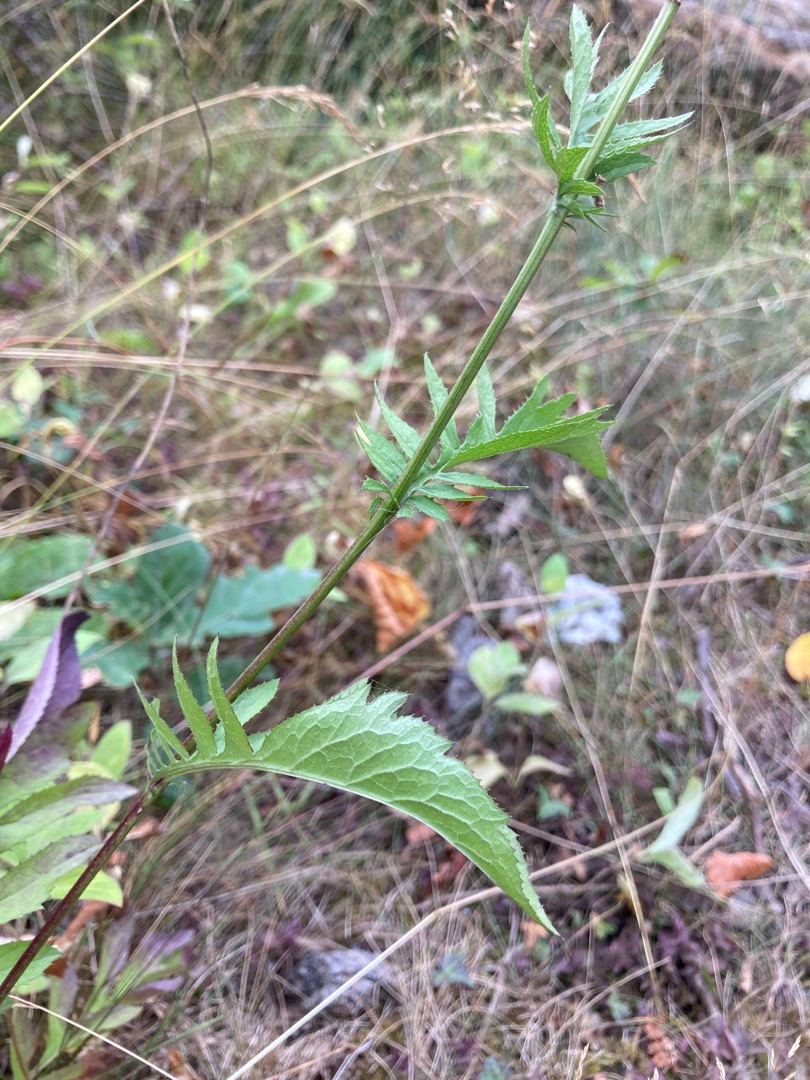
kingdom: Plantae
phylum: Tracheophyta
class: Magnoliopsida
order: Asterales
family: Asteraceae
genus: Serratula
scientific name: Serratula tinctoria
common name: Eng-skær
